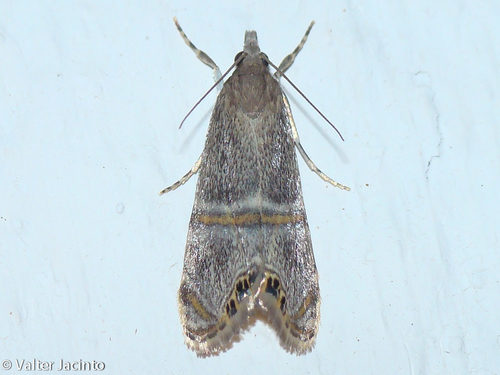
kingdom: Animalia
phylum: Arthropoda
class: Insecta
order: Lepidoptera
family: Crambidae
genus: Euchromius
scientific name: Euchromius vinculella
